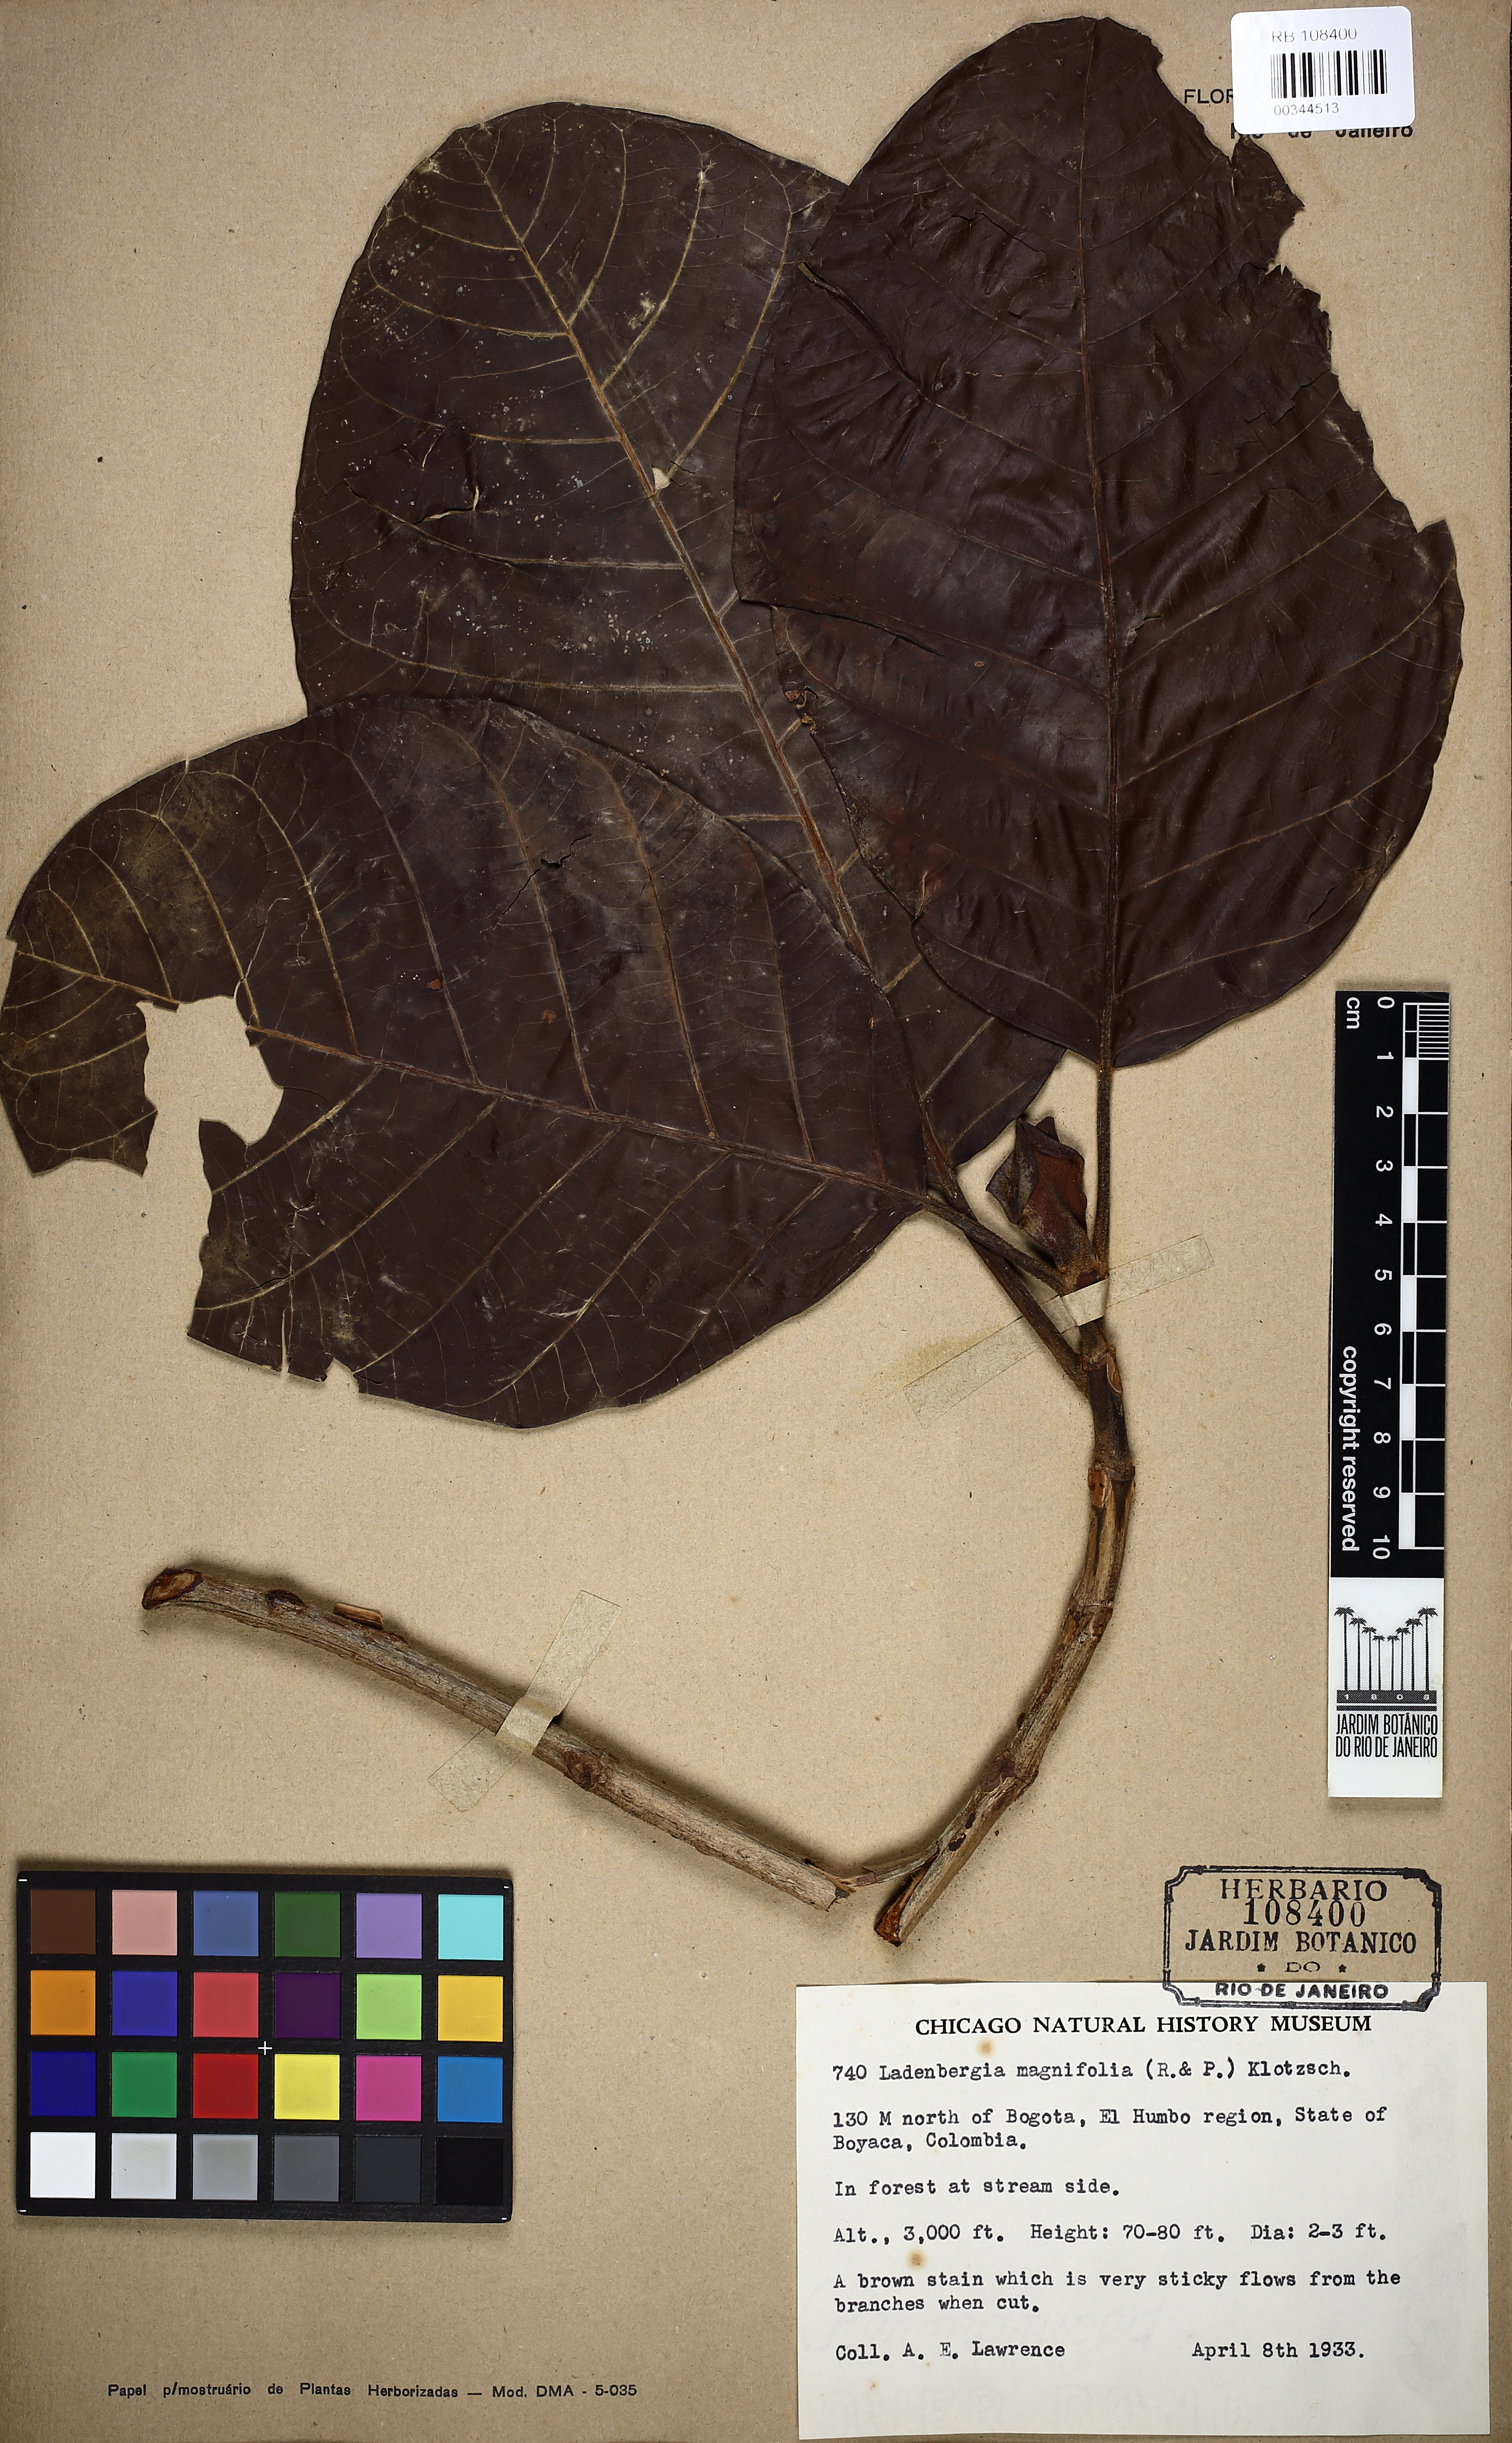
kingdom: Plantae
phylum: Tracheophyta
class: Magnoliopsida
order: Gentianales
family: Rubiaceae
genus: Ladenbergia
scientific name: Ladenbergia oblongifolia
